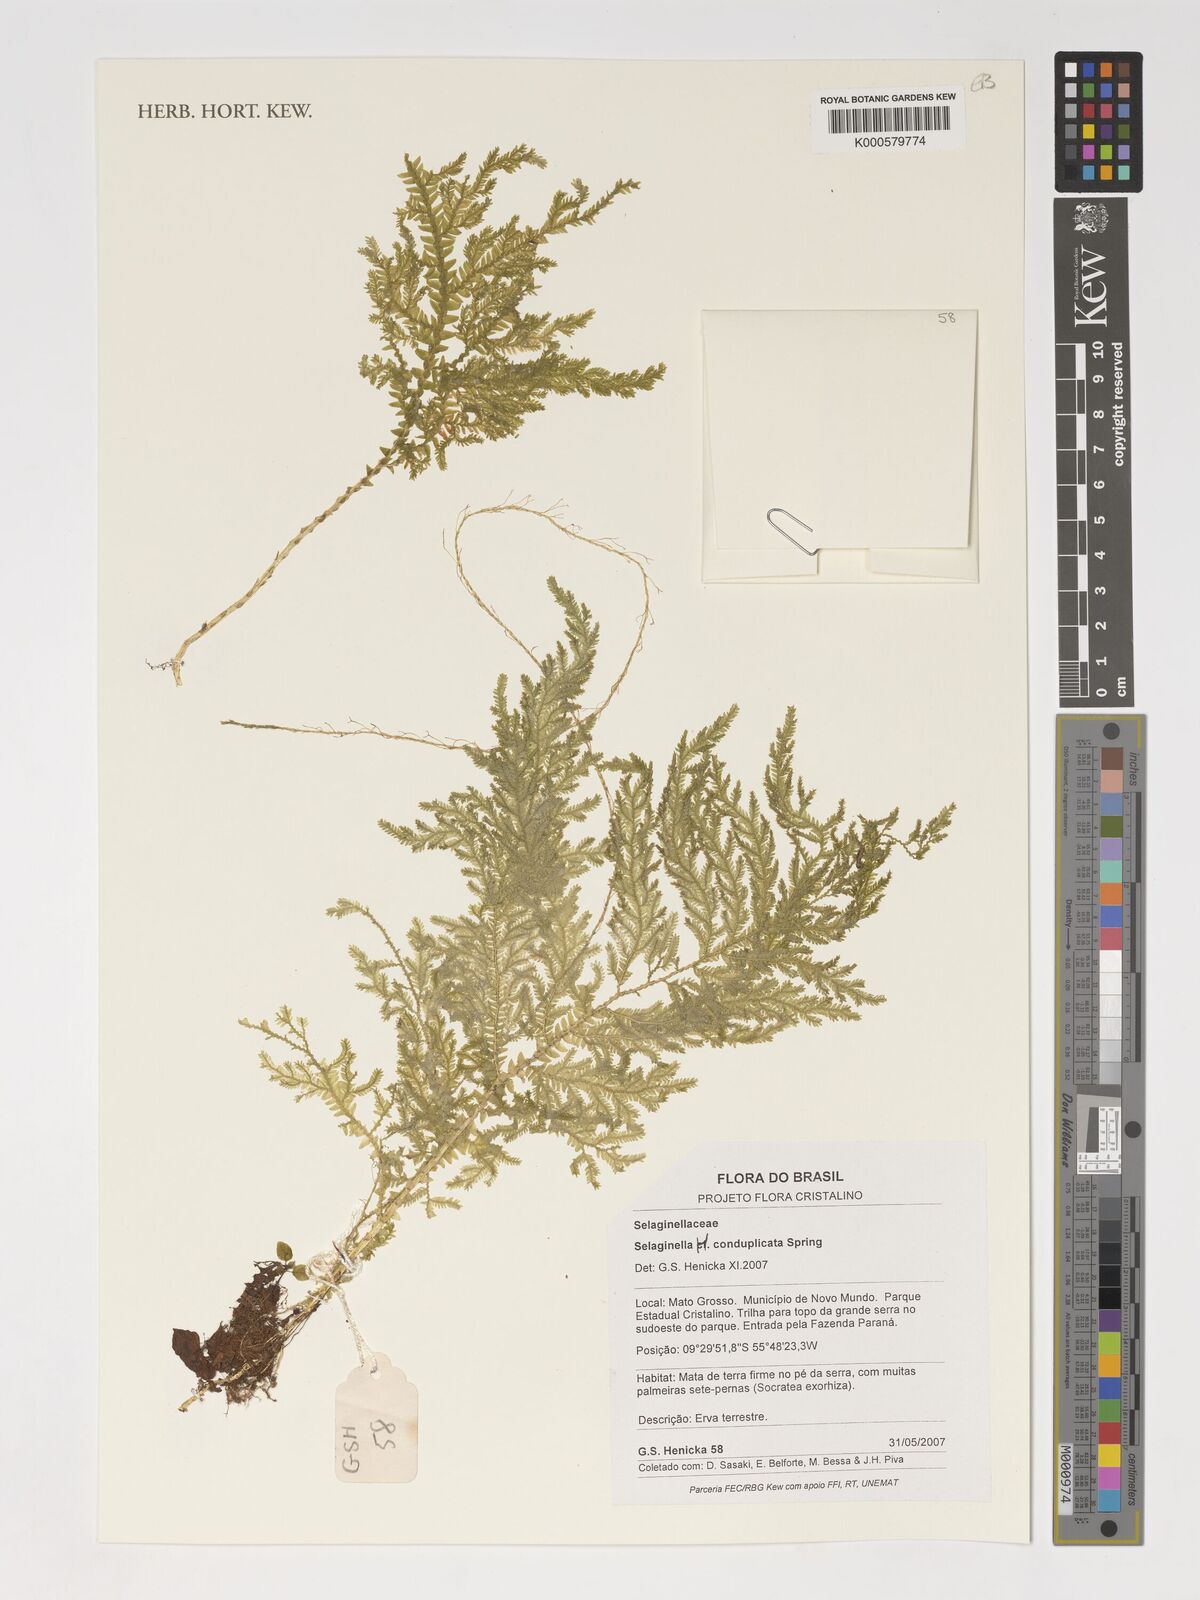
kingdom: Plantae
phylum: Tracheophyta
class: Lycopodiopsida
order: Selaginellales
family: Selaginellaceae
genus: Selaginella
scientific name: Selaginella conduplicata
